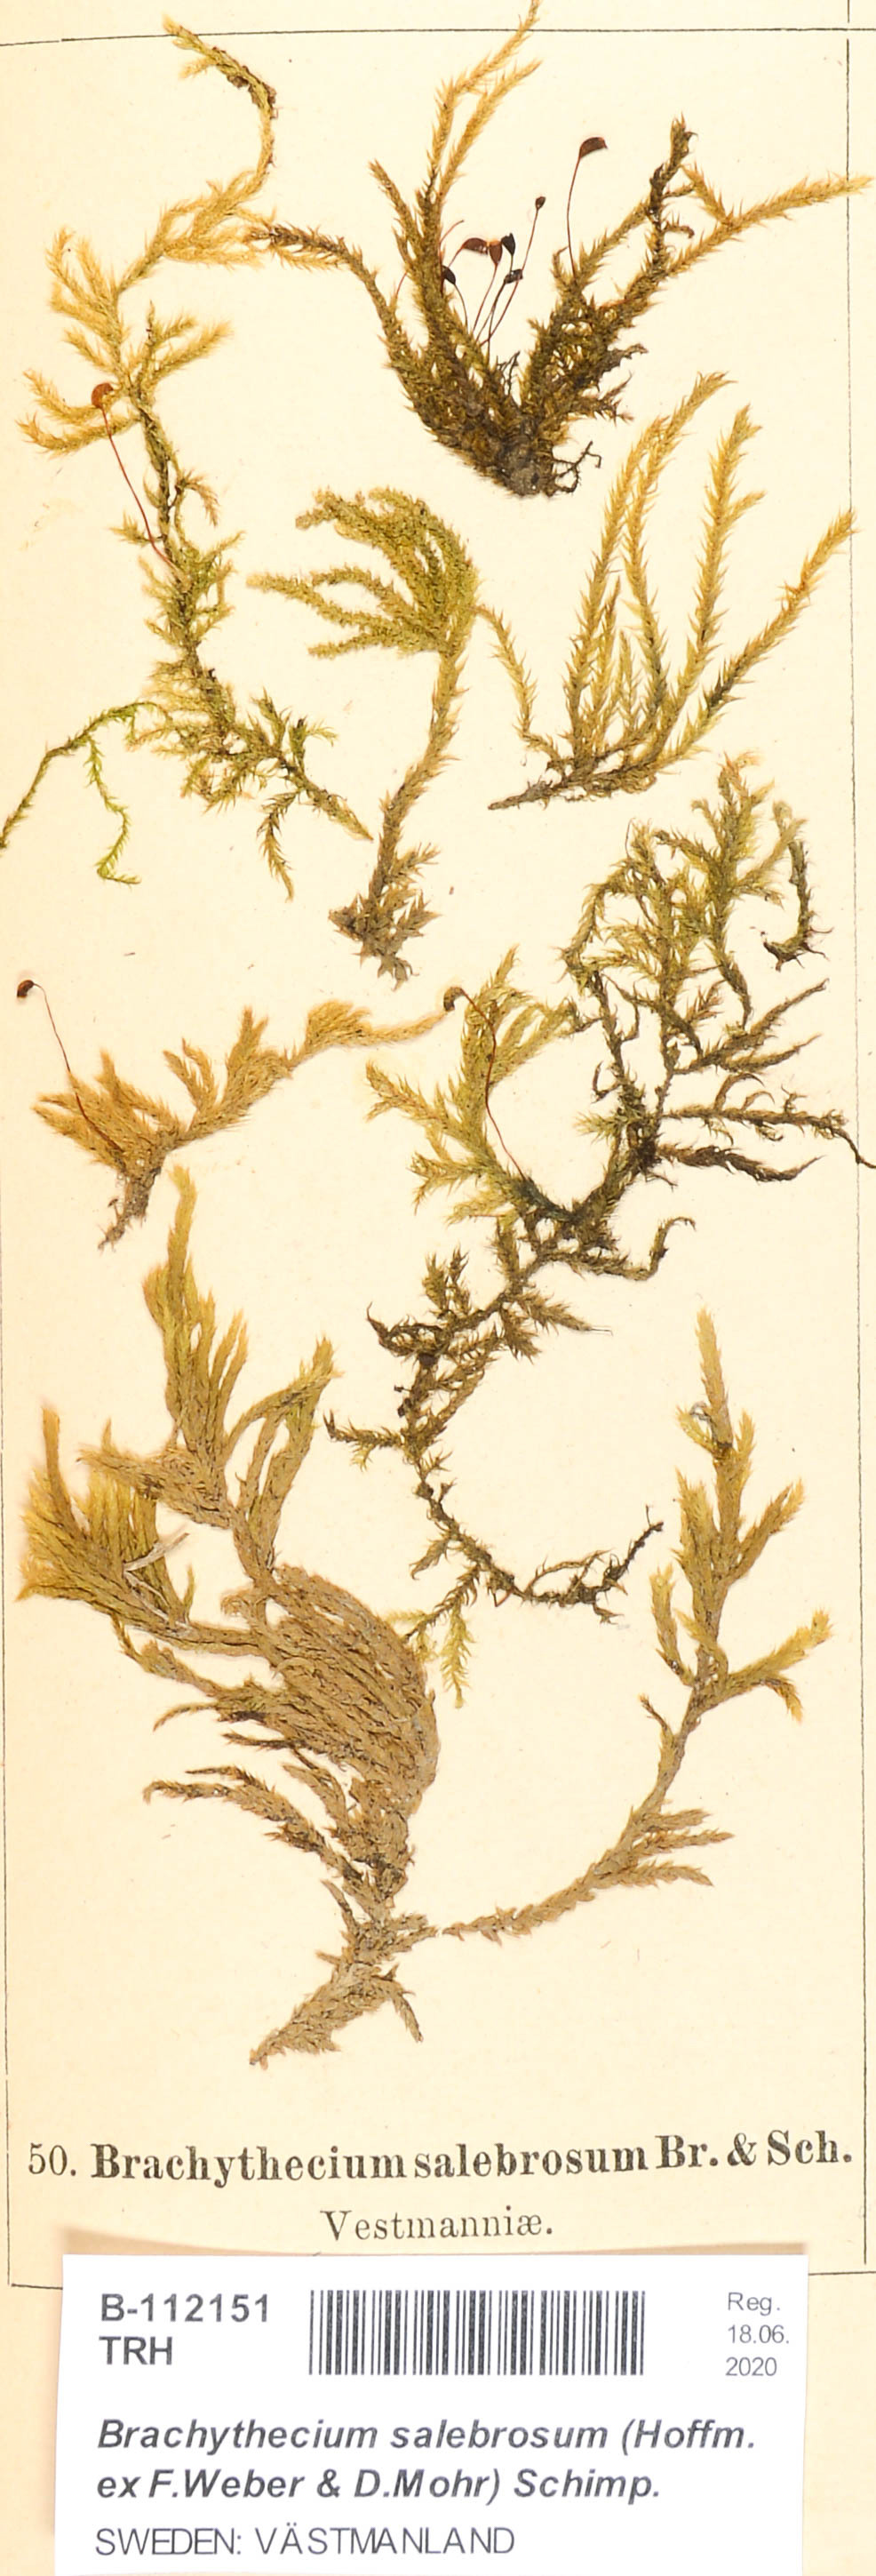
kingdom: Plantae
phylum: Bryophyta
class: Bryopsida
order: Hypnales
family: Brachytheciaceae
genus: Brachythecium
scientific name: Brachythecium salebrosum
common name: Smooth-stalk feather-moss
